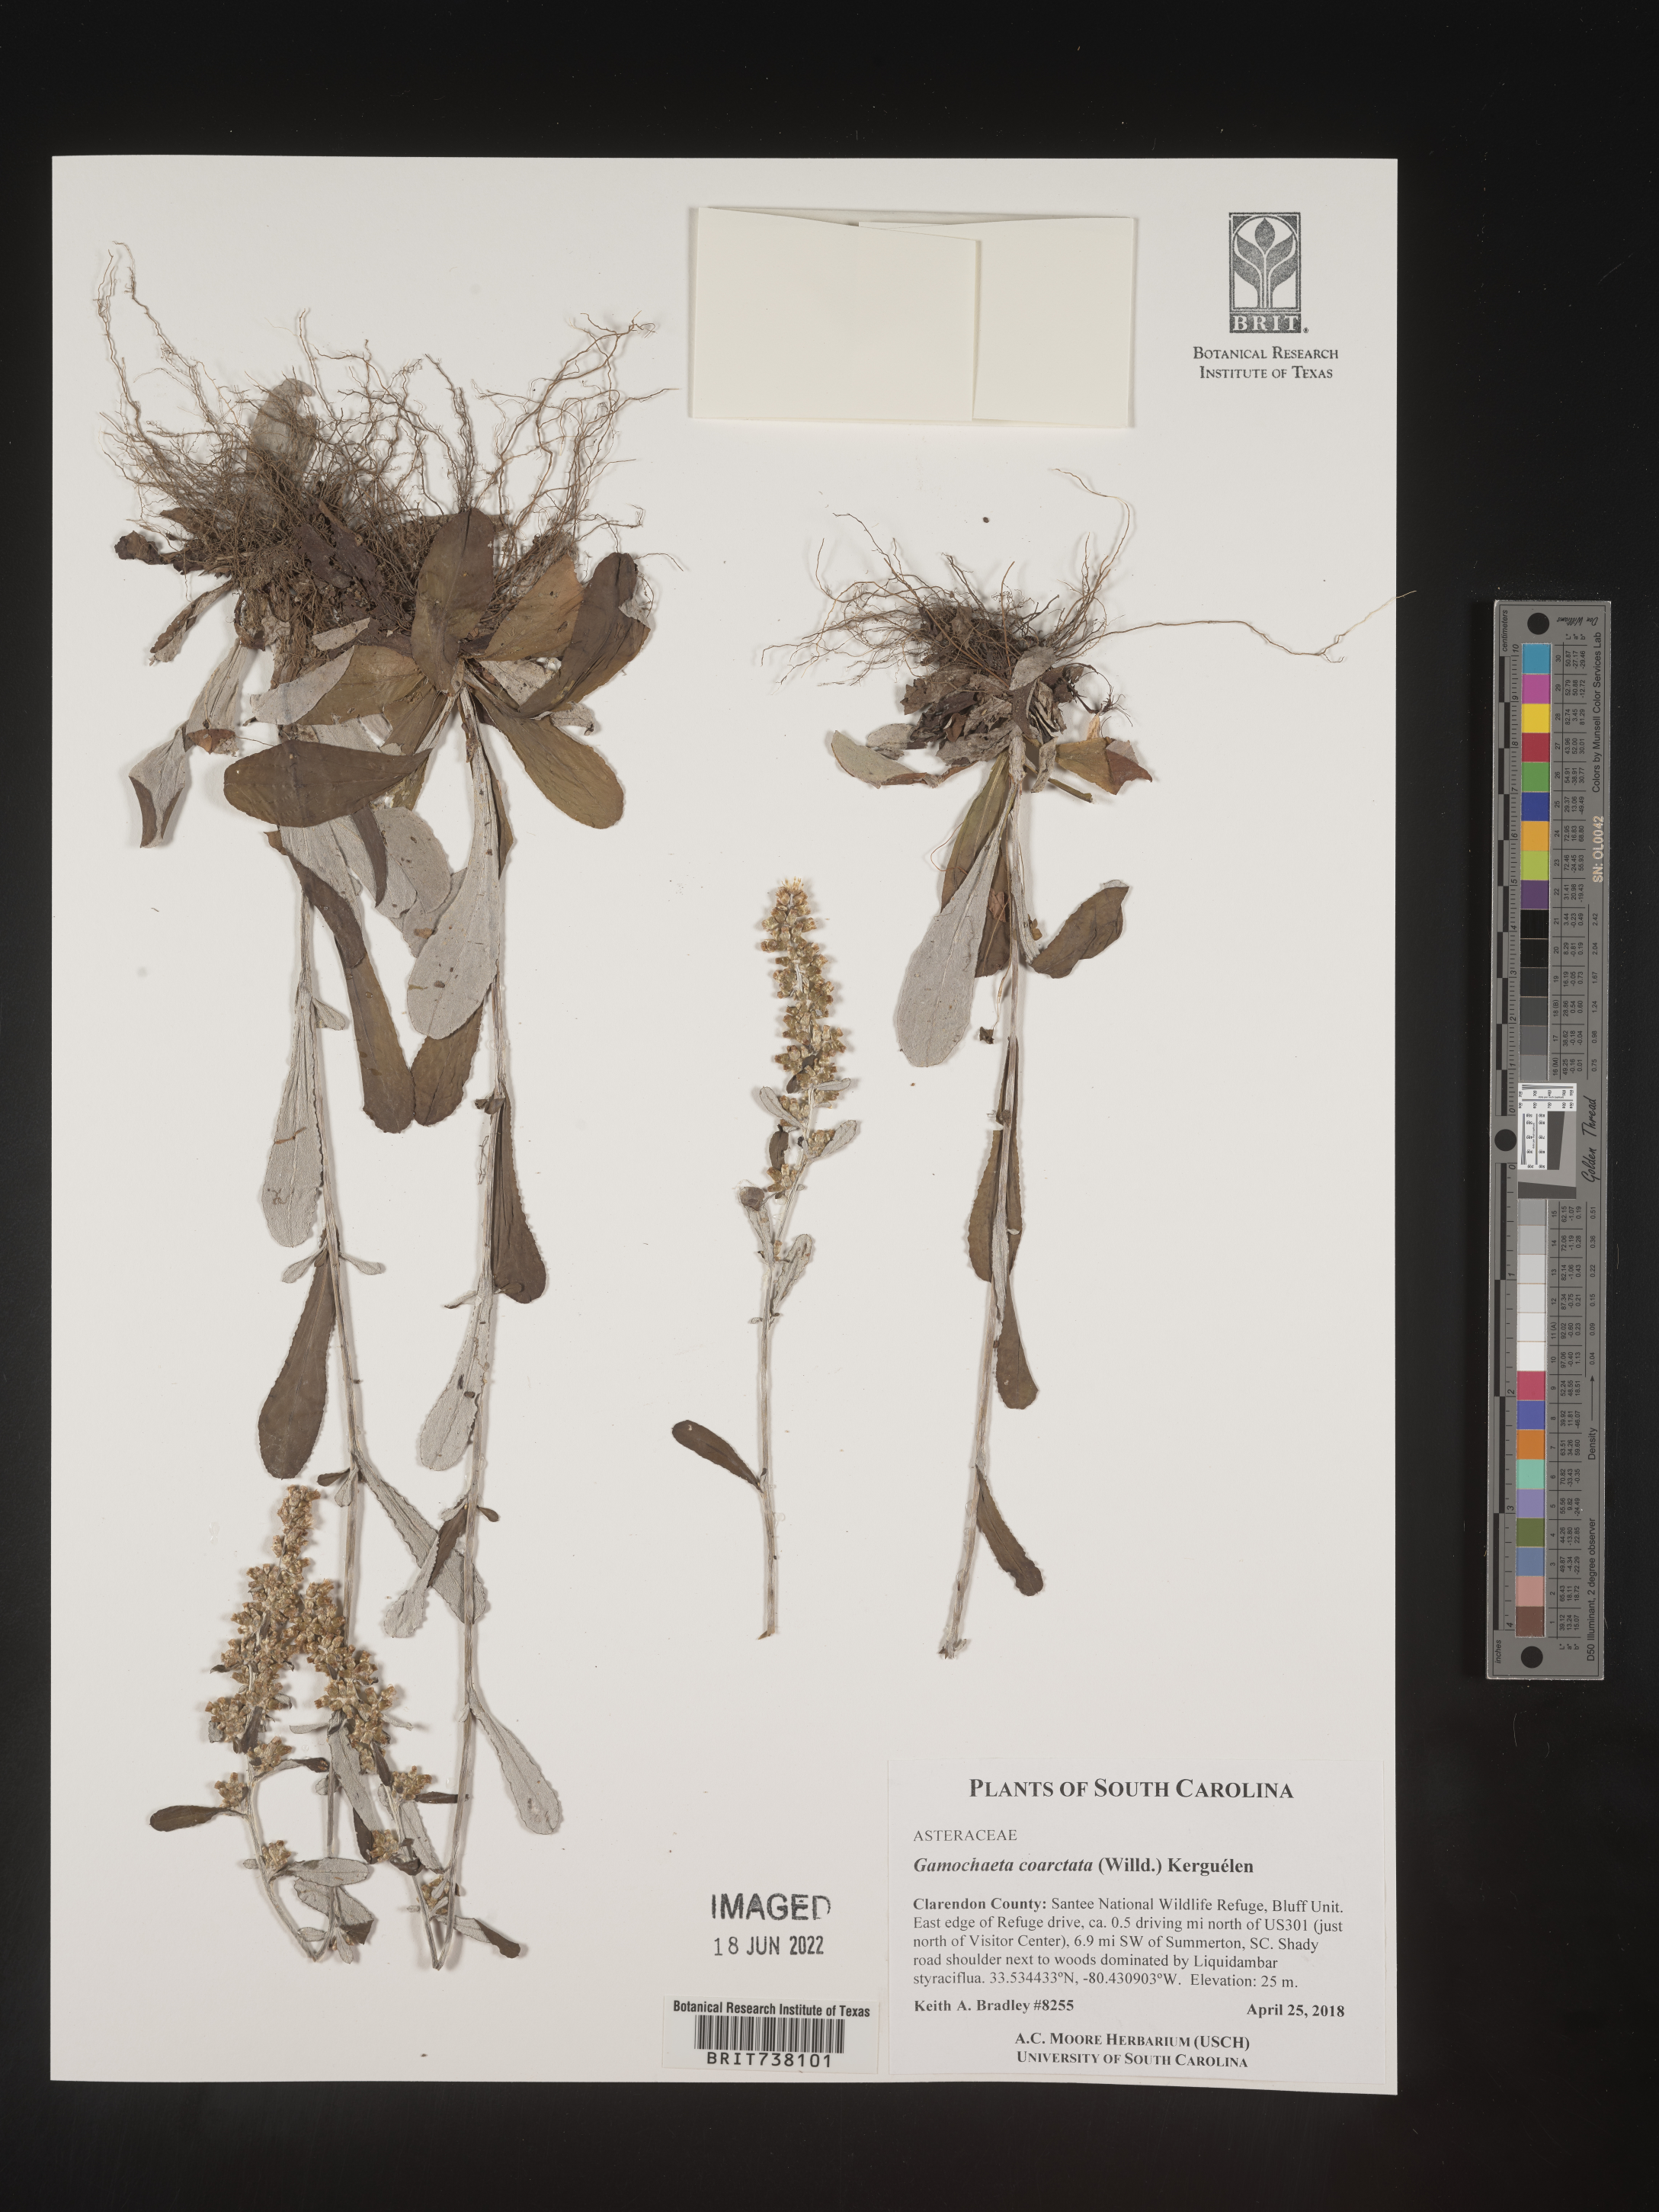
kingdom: Plantae
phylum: Tracheophyta
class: Magnoliopsida
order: Asterales
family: Asteraceae
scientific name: Asteraceae
